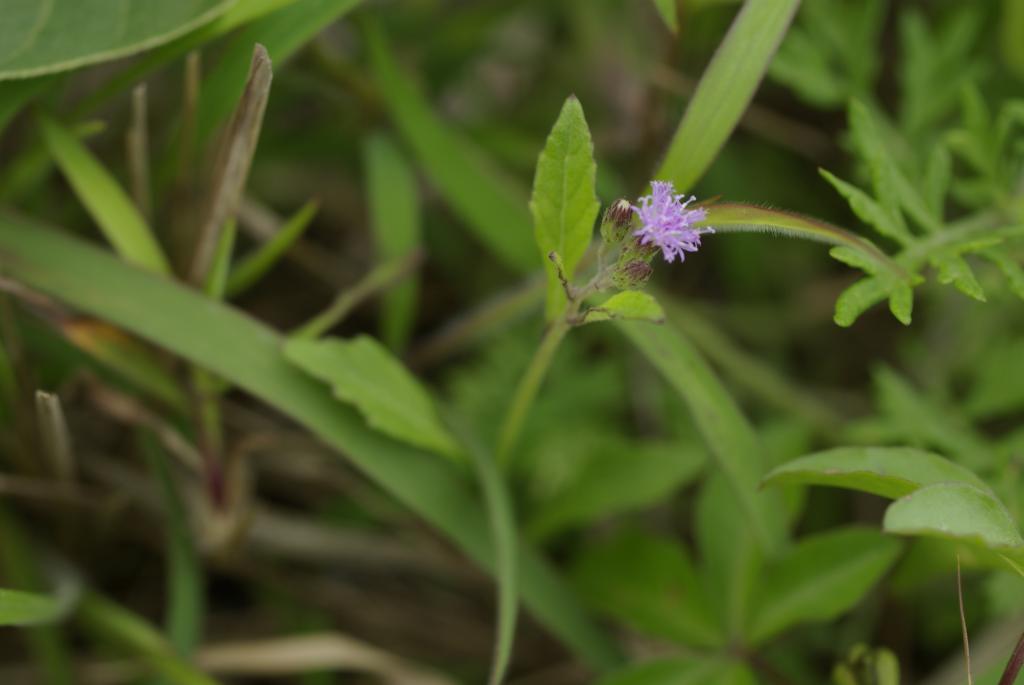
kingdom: Plantae
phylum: Tracheophyta
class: Magnoliopsida
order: Asterales
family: Asteraceae
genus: Praxelis
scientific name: Praxelis clematidea
